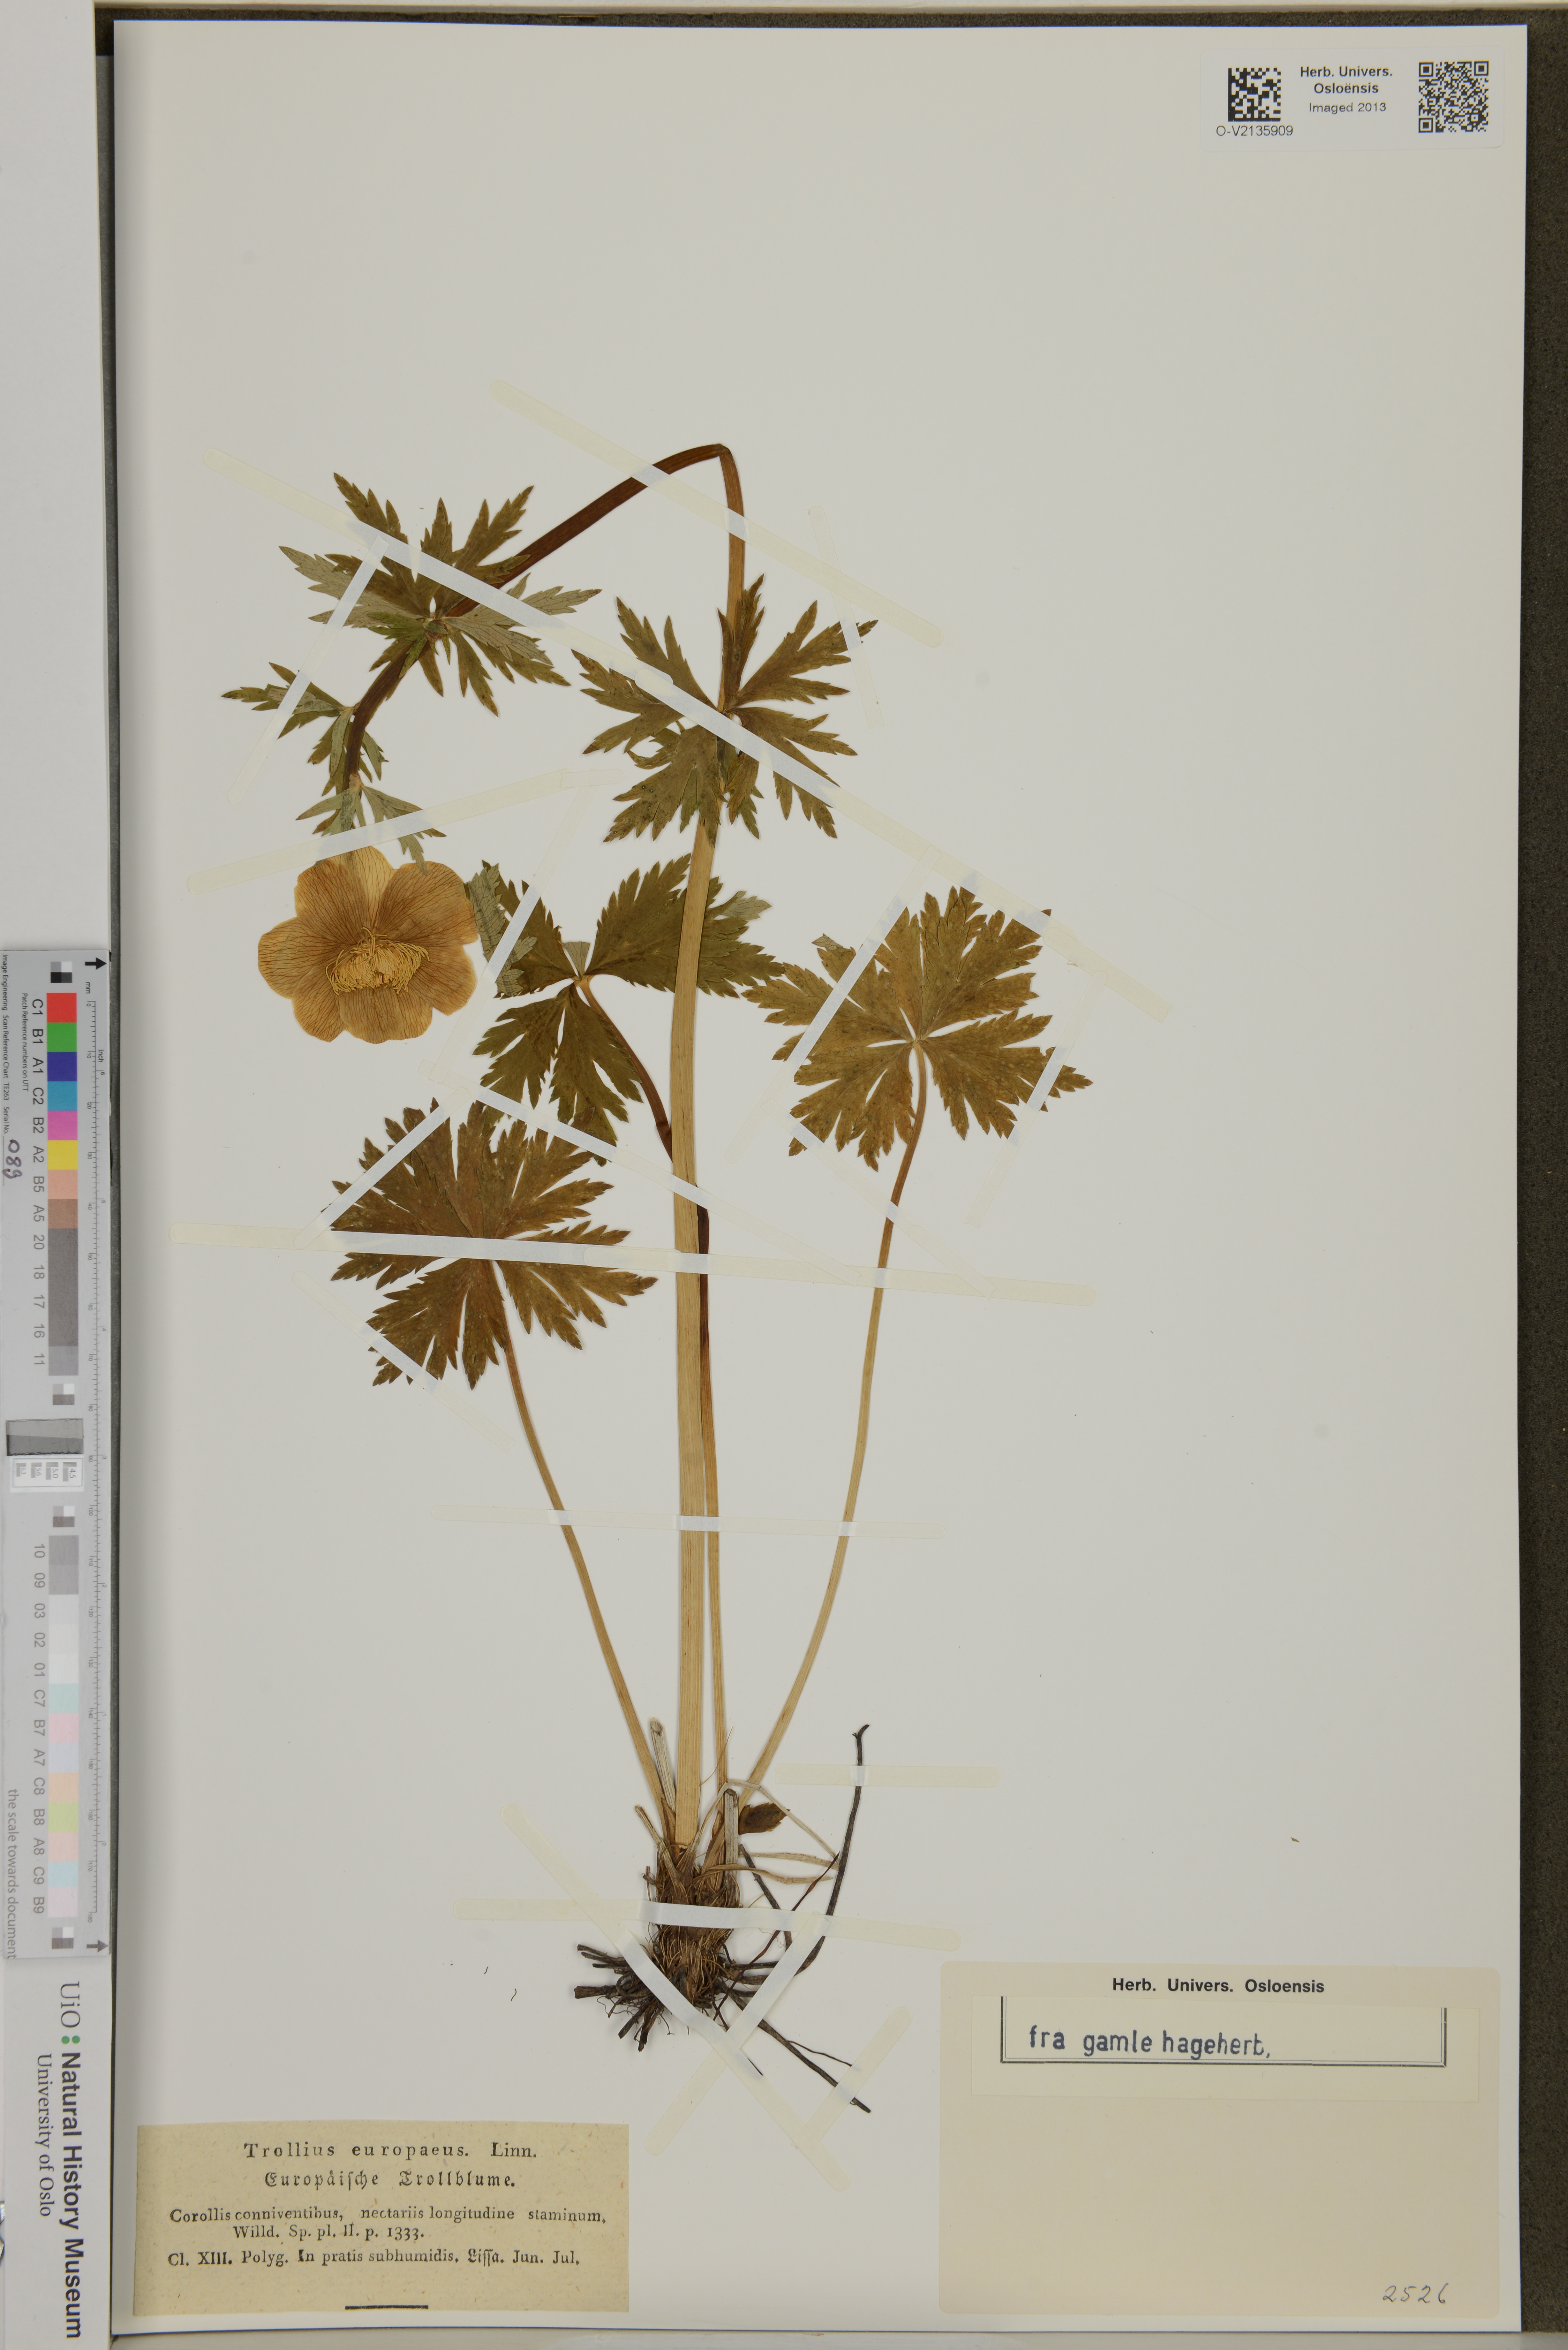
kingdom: Plantae
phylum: Tracheophyta
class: Magnoliopsida
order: Ranunculales
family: Ranunculaceae
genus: Trollius
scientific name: Trollius europaeus
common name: European globeflower
